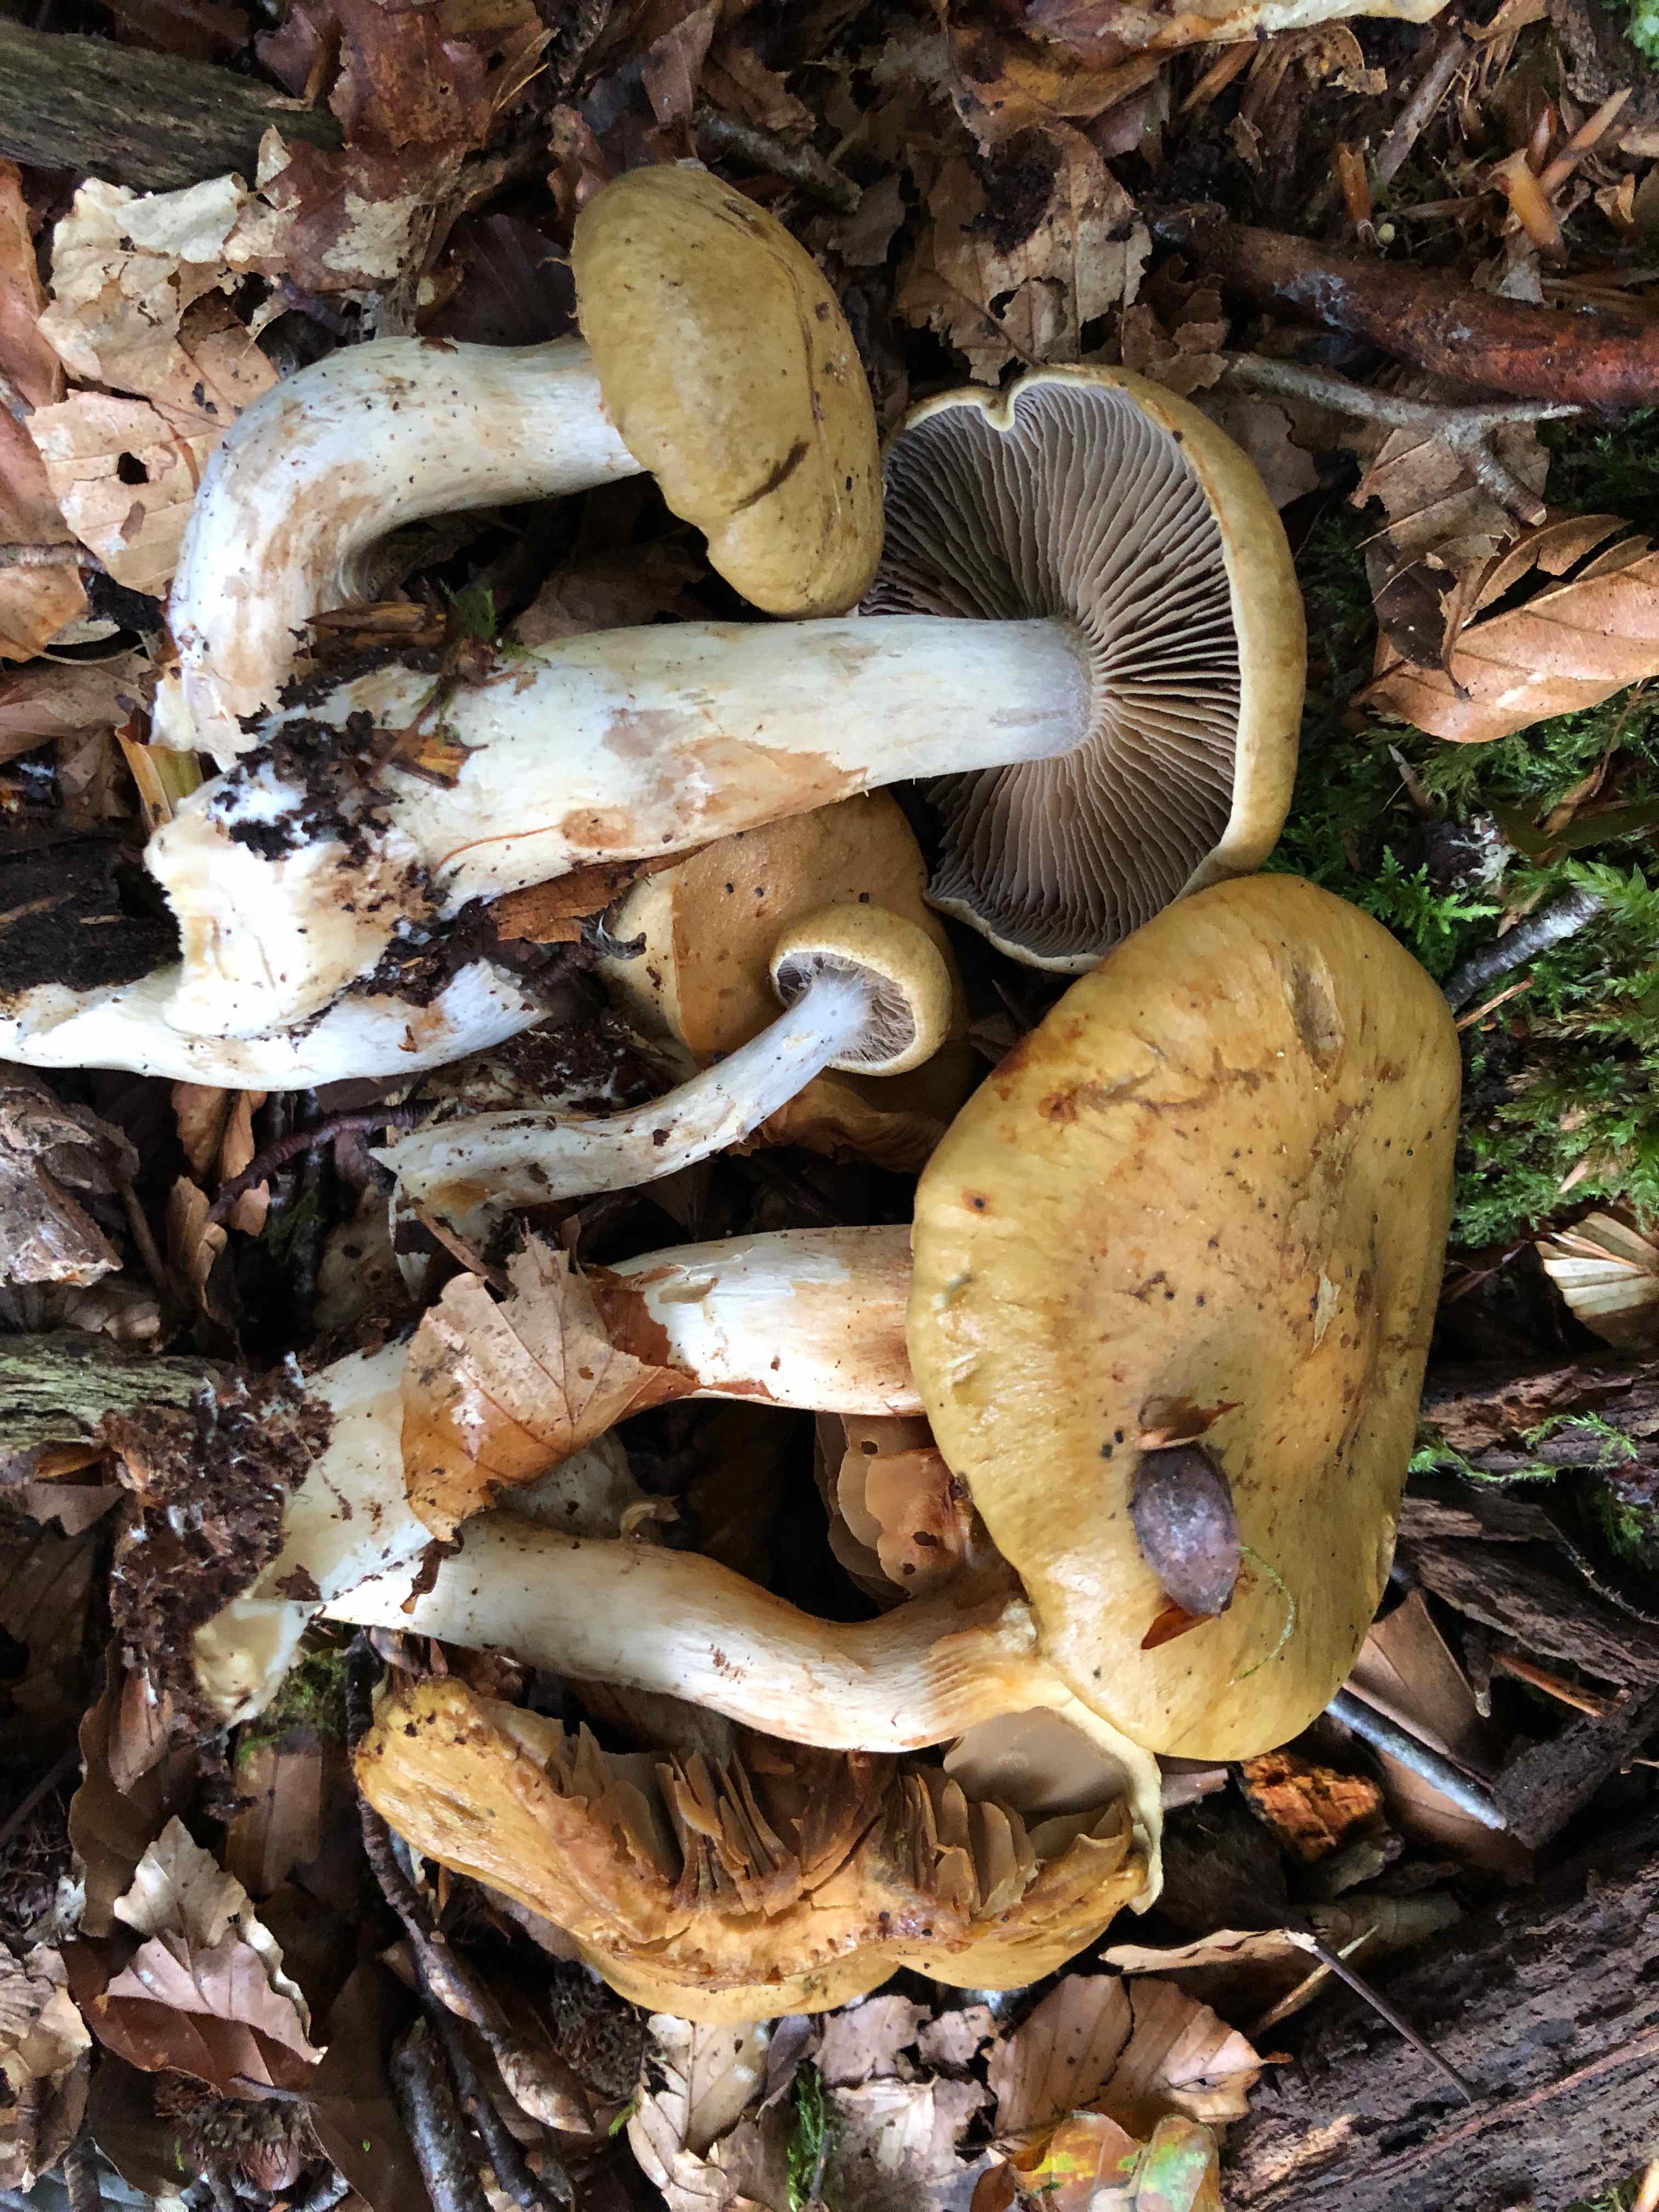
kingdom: Fungi
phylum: Basidiomycota
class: Agaricomycetes
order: Agaricales
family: Cortinariaceae
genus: Cortinarius
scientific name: Cortinarius subtortus
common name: olivengul slørhat
